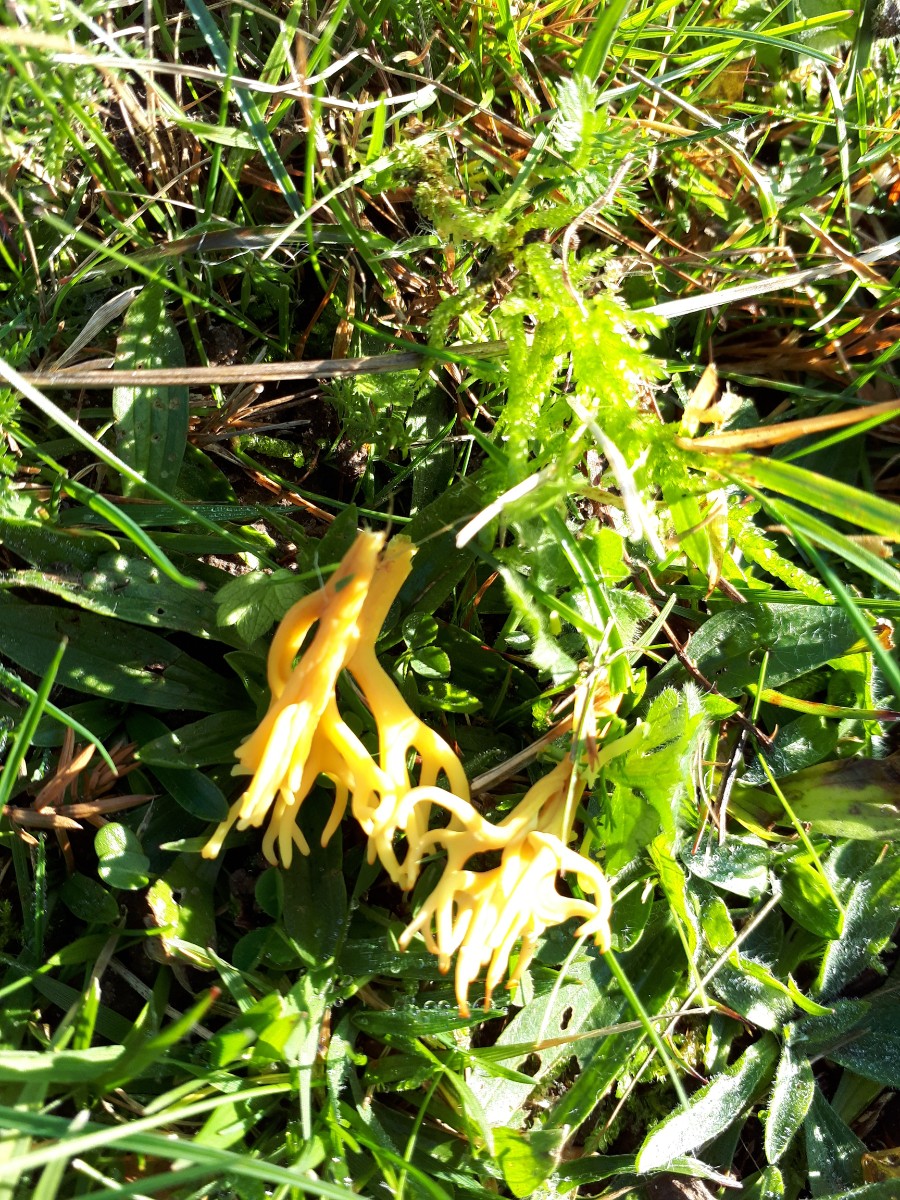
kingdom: Fungi
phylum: Basidiomycota
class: Agaricomycetes
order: Agaricales
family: Clavariaceae
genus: Clavulinopsis
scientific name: Clavulinopsis corniculata
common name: eng-køllesvamp
